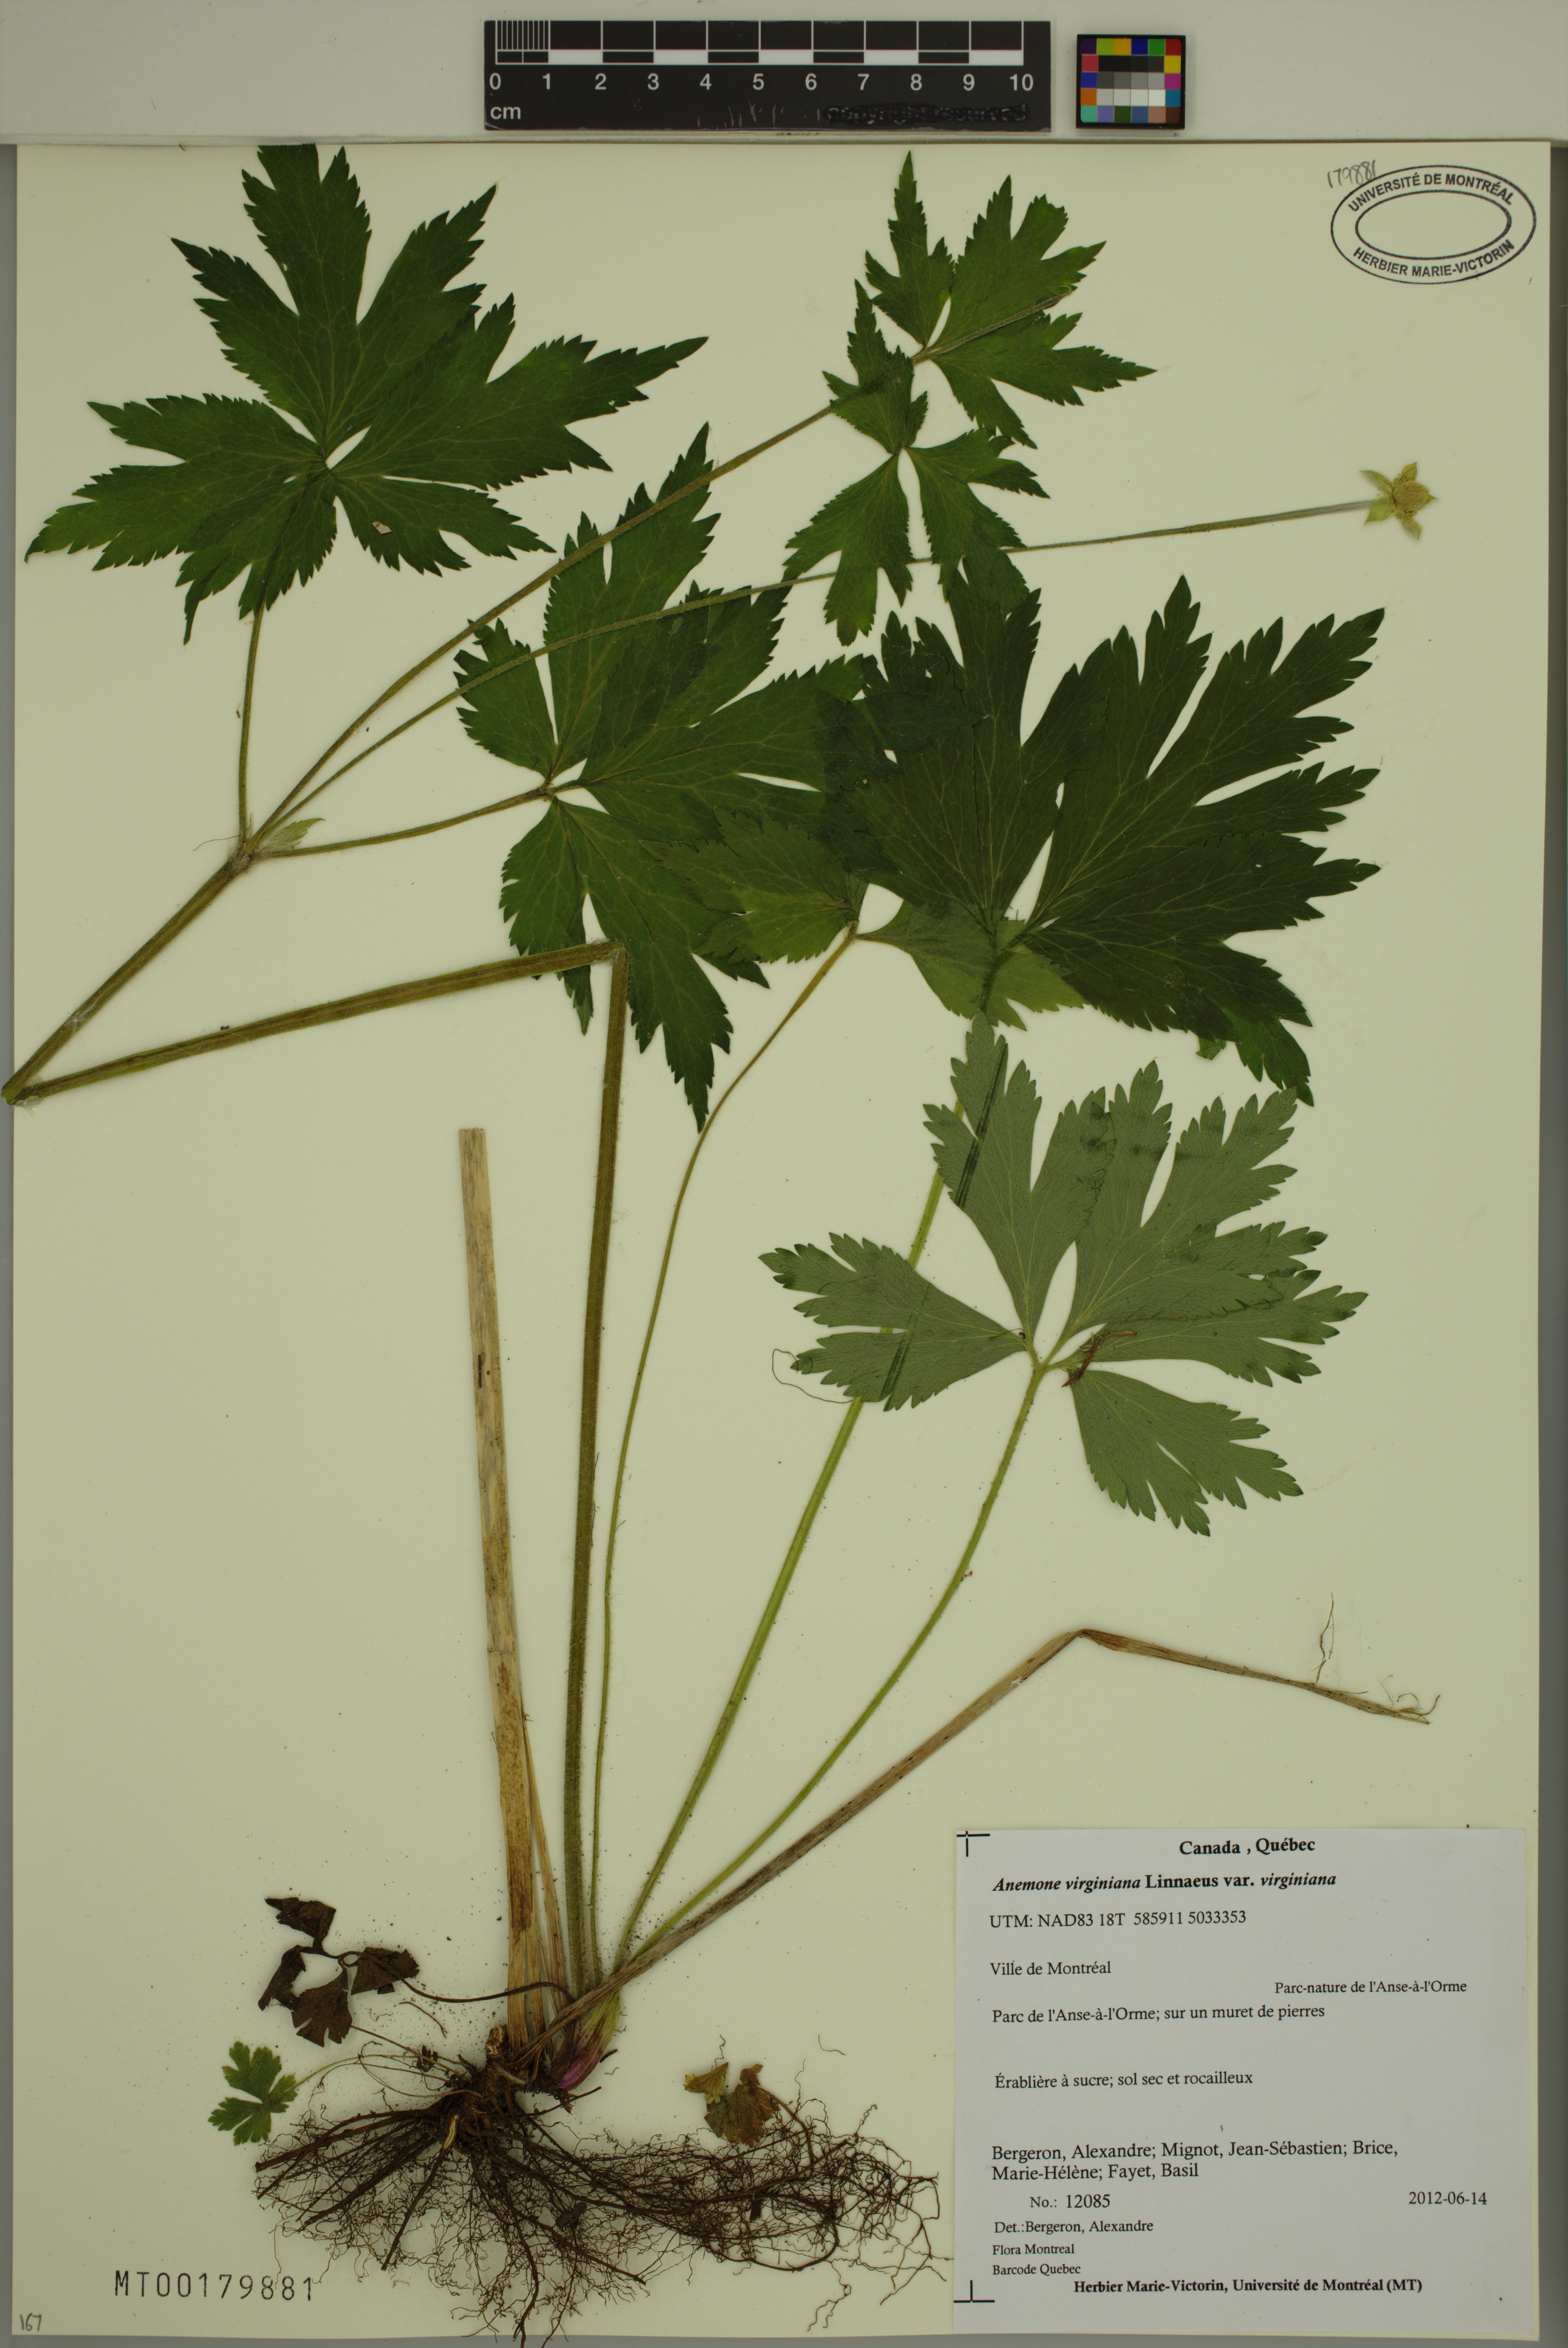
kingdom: Plantae
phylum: Tracheophyta
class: Magnoliopsida
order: Ranunculales
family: Ranunculaceae
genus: Anemone
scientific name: Anemone virginiana
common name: Tall anemone
